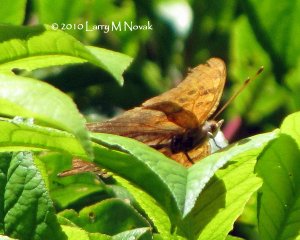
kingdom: Animalia
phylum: Arthropoda
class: Insecta
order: Lepidoptera
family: Nymphalidae
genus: Polygonia
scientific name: Polygonia interrogationis
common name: Question Mark
